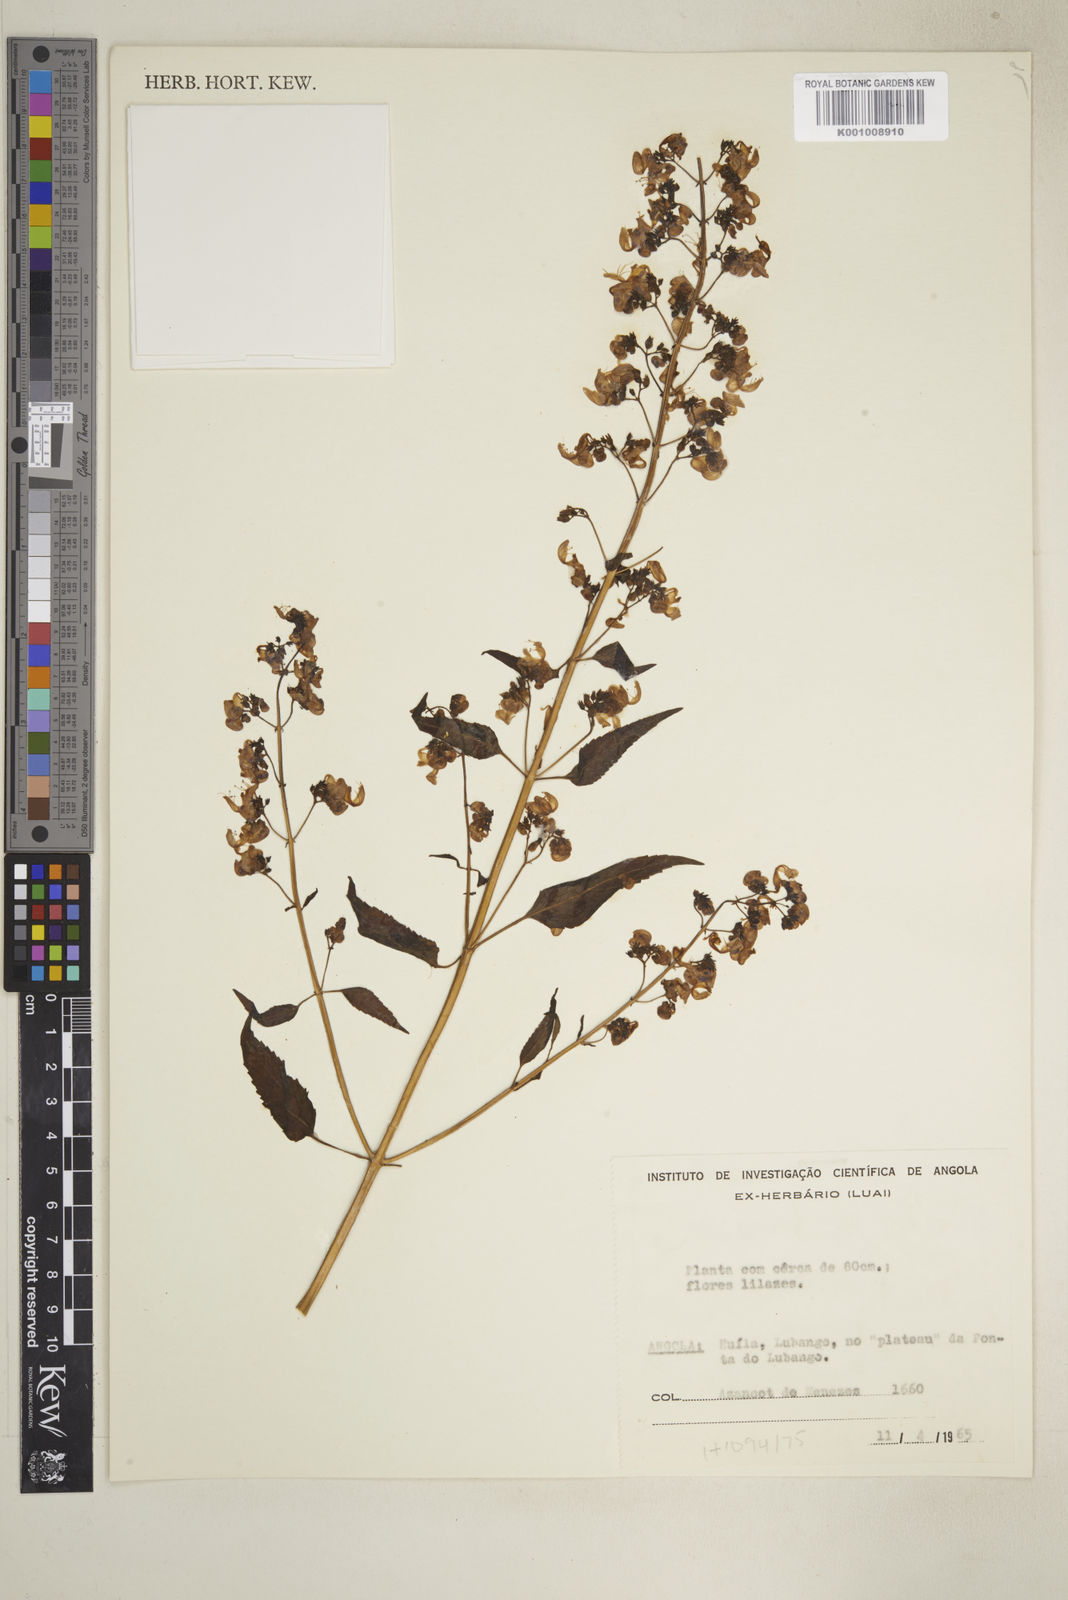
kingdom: Plantae
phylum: Tracheophyta
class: Magnoliopsida
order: Lamiales
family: Lamiaceae
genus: Coleus
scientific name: Coleus hereroensis
